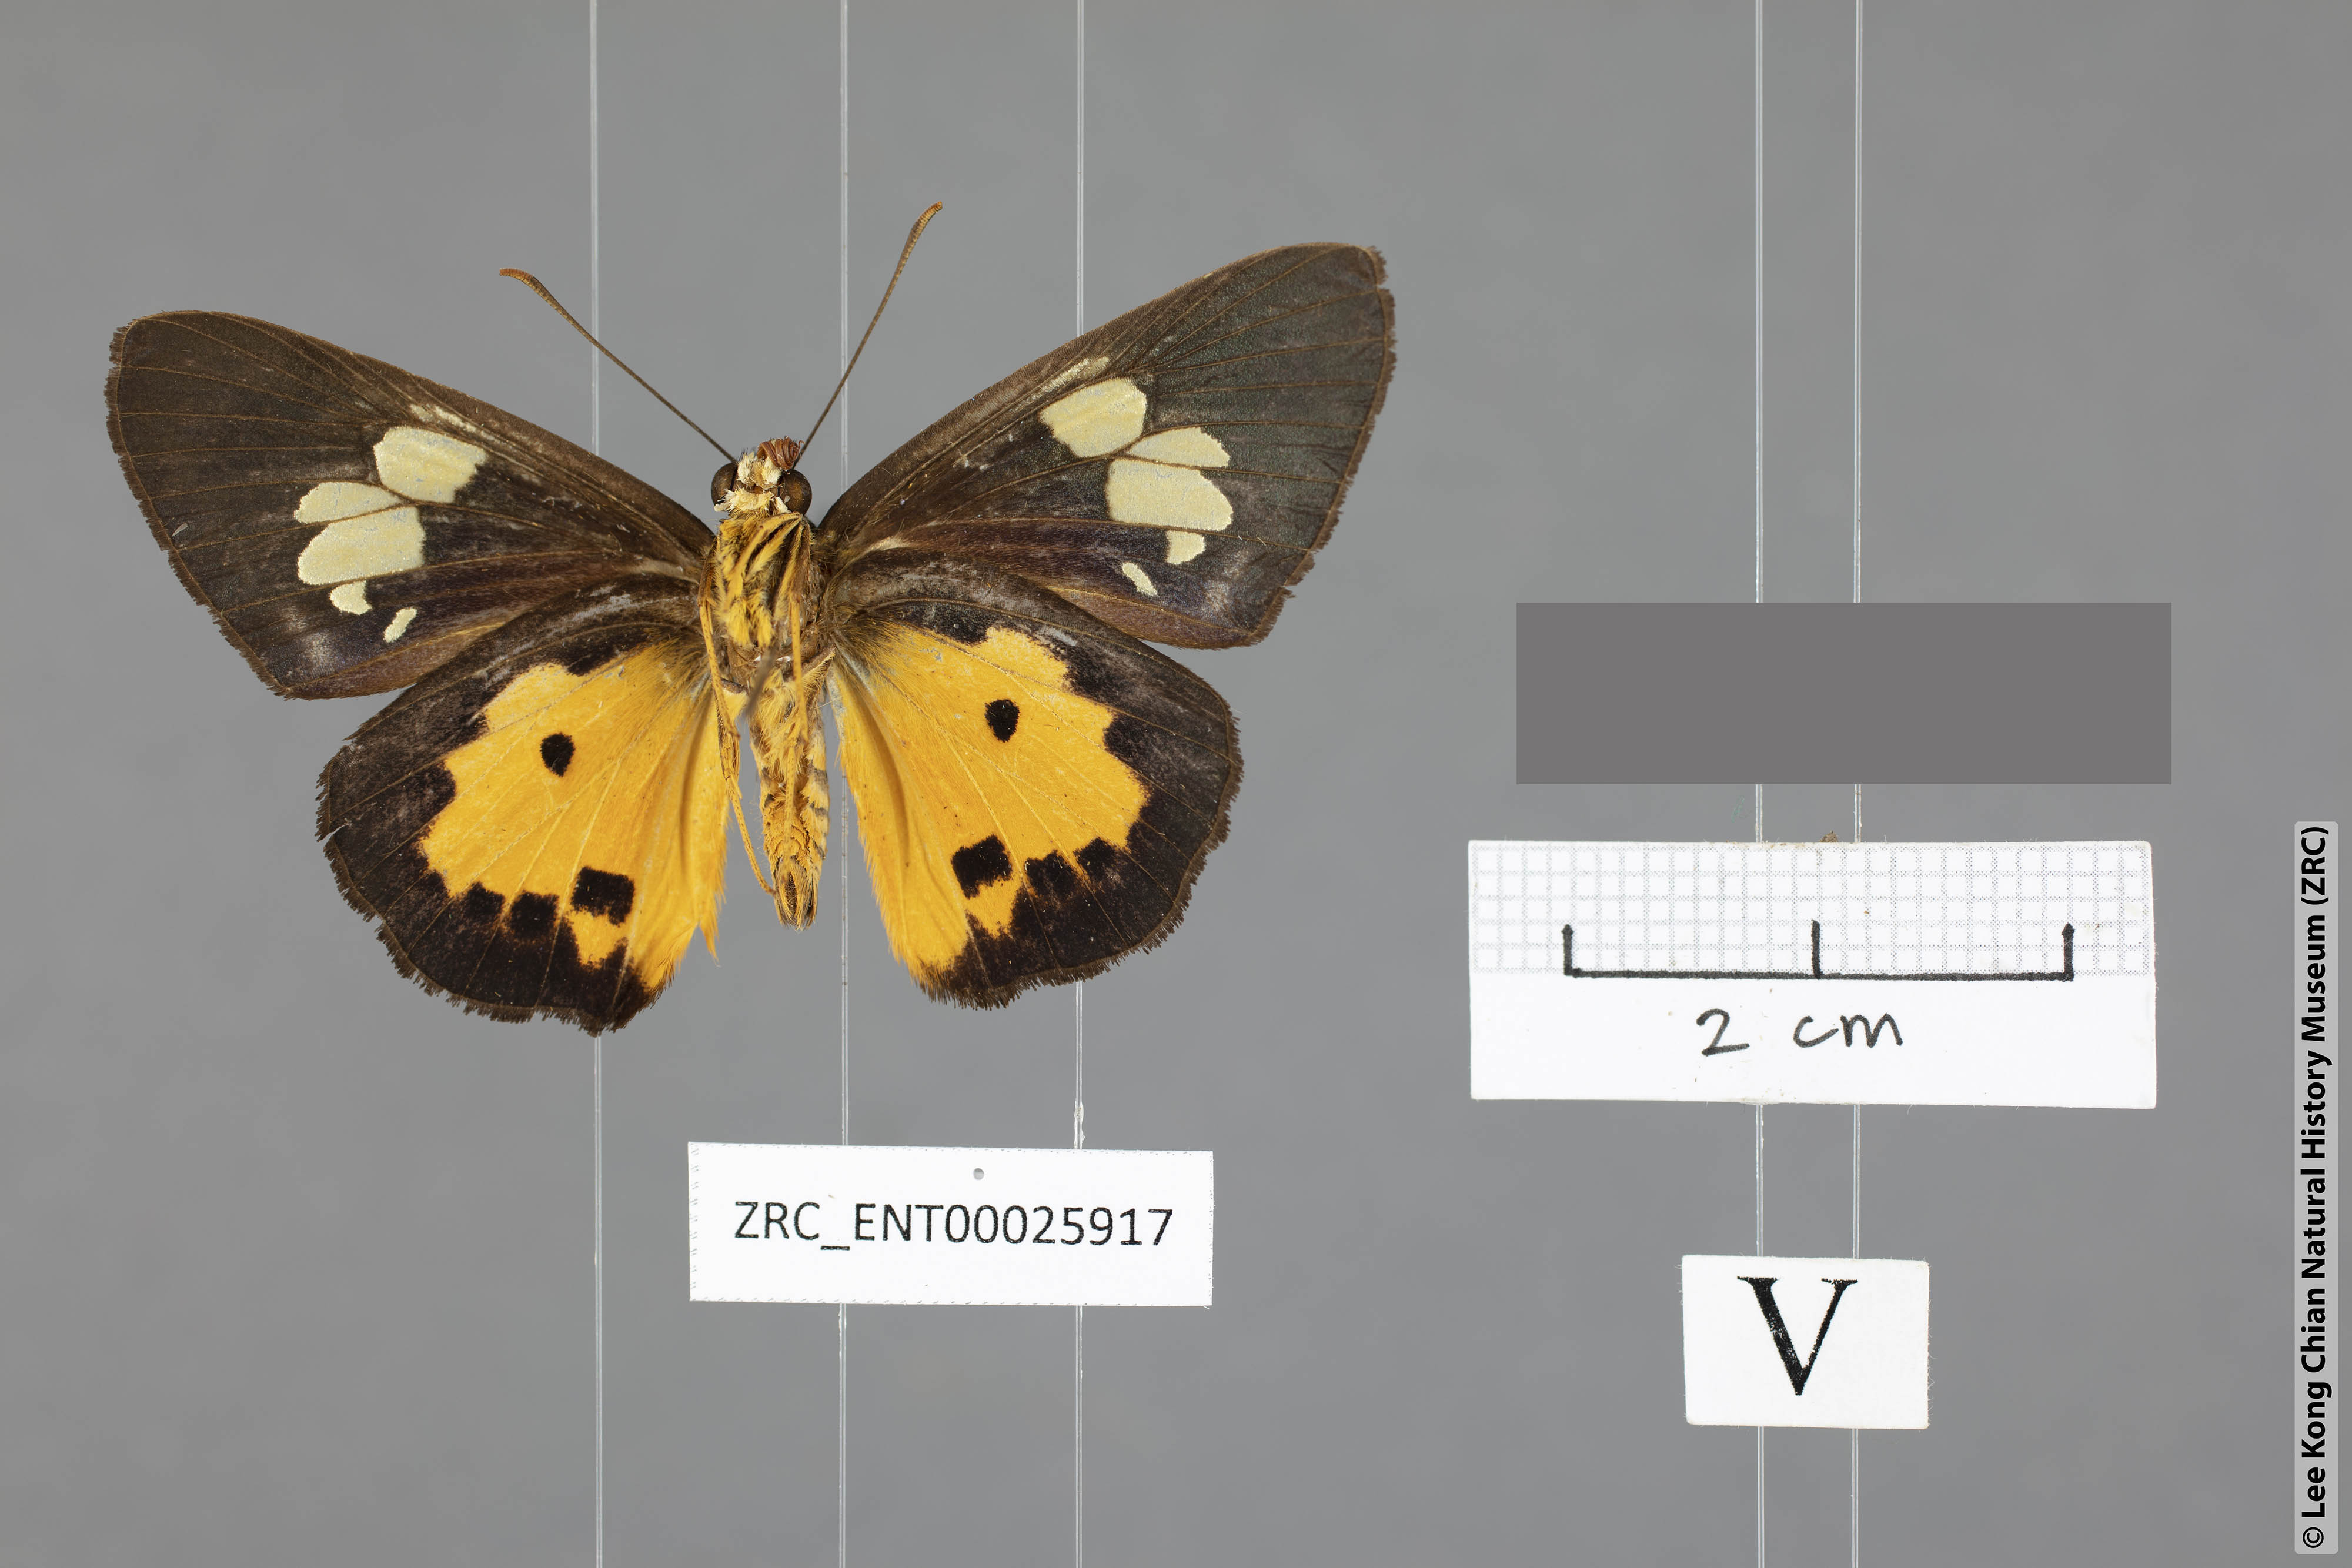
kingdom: Animalia
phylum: Arthropoda
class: Insecta
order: Lepidoptera
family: Hesperiidae
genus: Pintara
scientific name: Pintara pinwilli
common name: Orange flat
